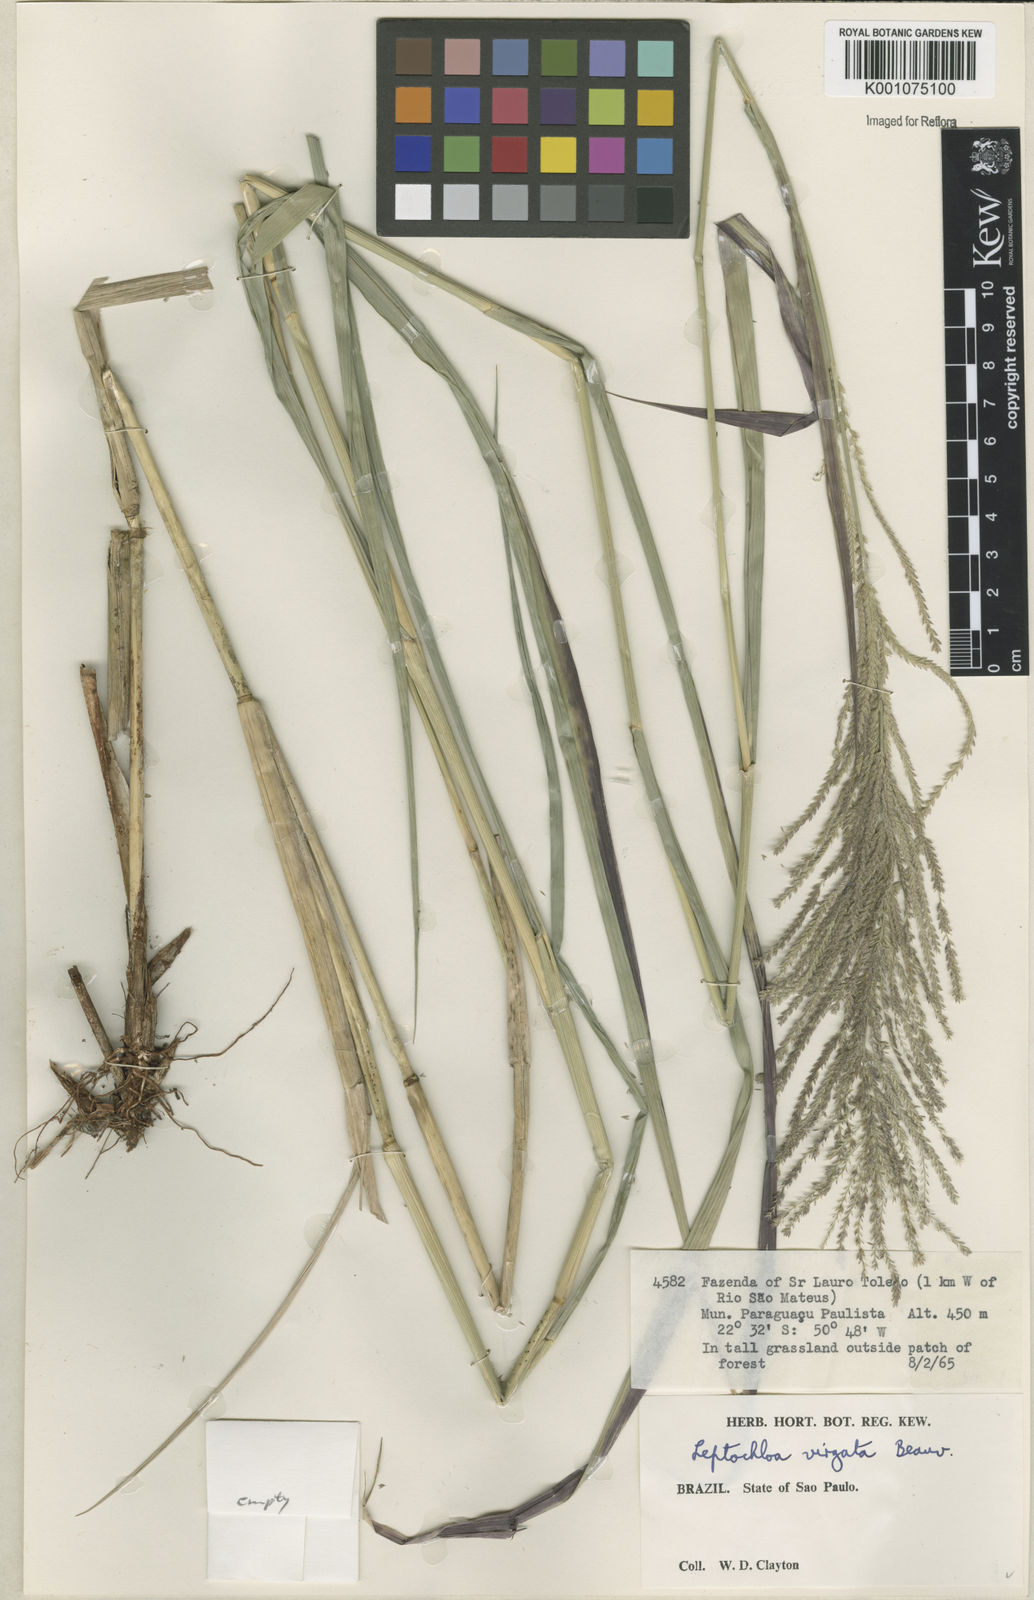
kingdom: Plantae
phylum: Tracheophyta
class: Liliopsida
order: Poales
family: Poaceae
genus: Leptochloa
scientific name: Leptochloa virgata
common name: Tropical sprangletop
